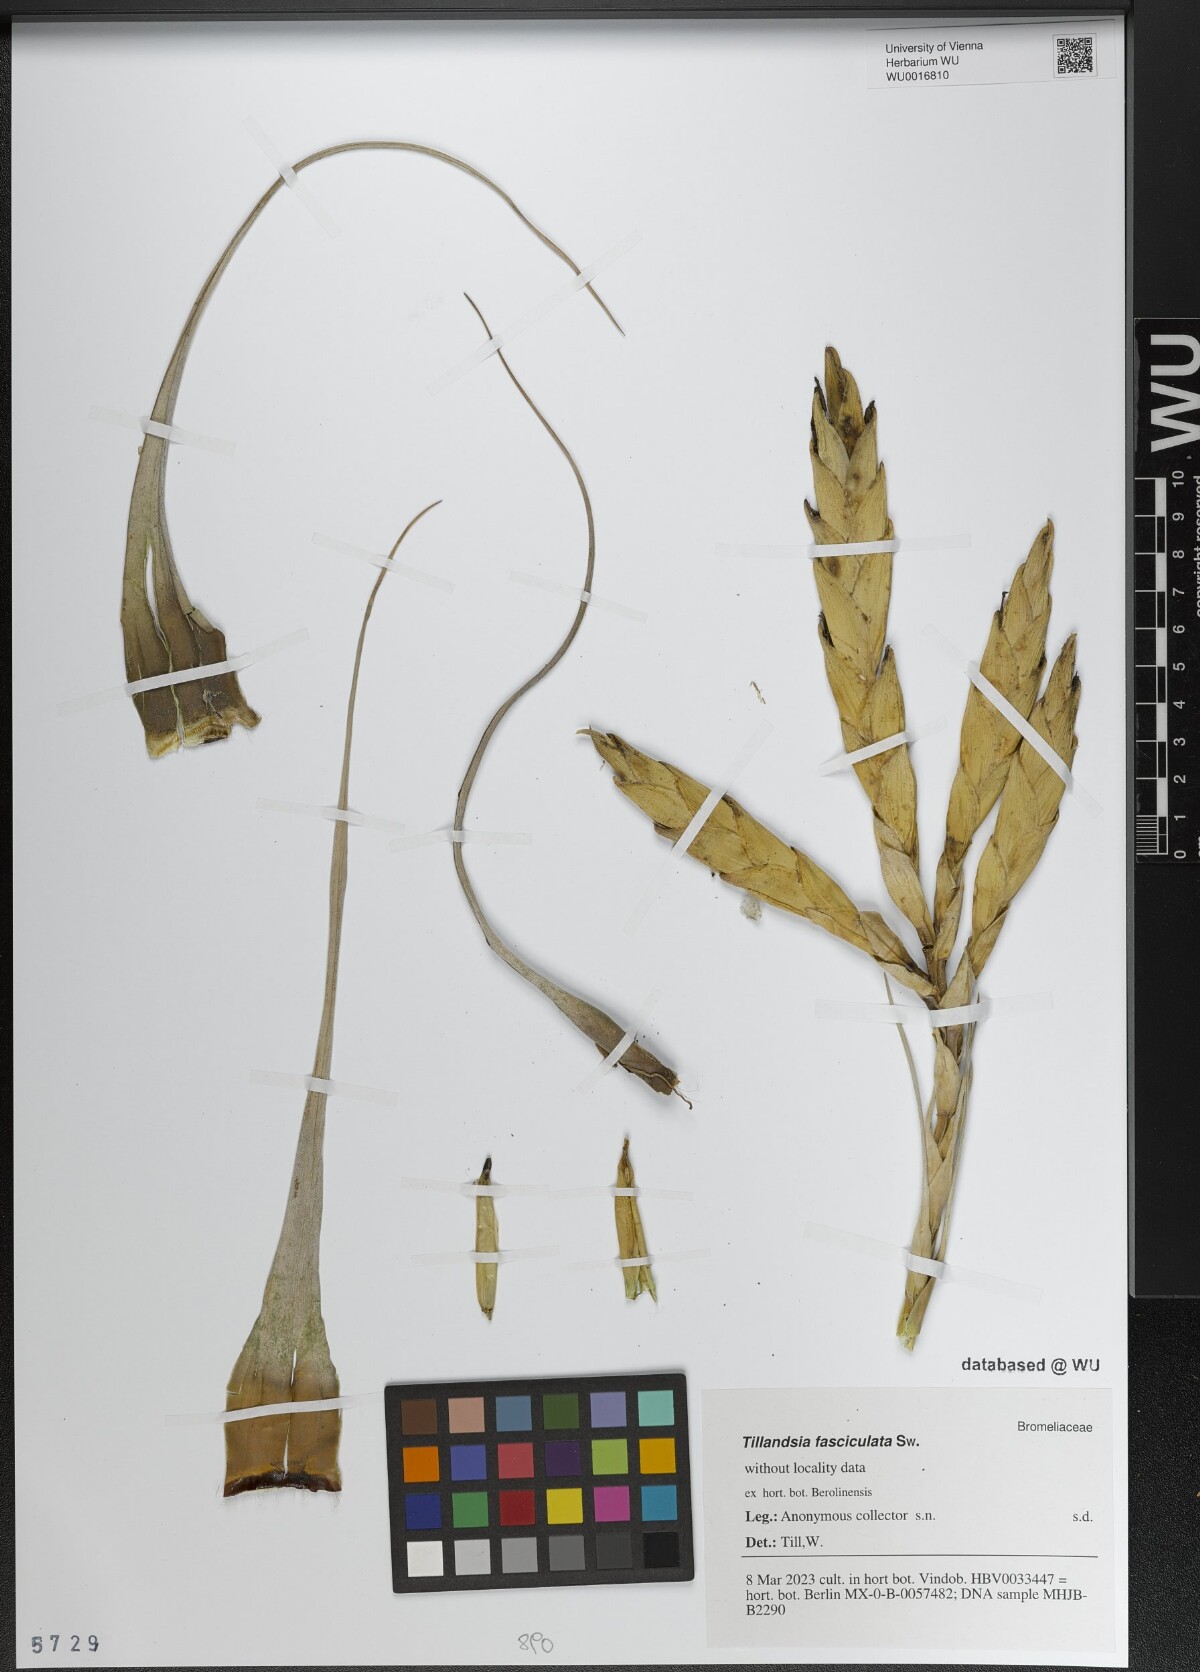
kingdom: Plantae
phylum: Tracheophyta
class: Liliopsida
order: Poales
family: Bromeliaceae
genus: Tillandsia
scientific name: Tillandsia fasciculata
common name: Giant airplant
